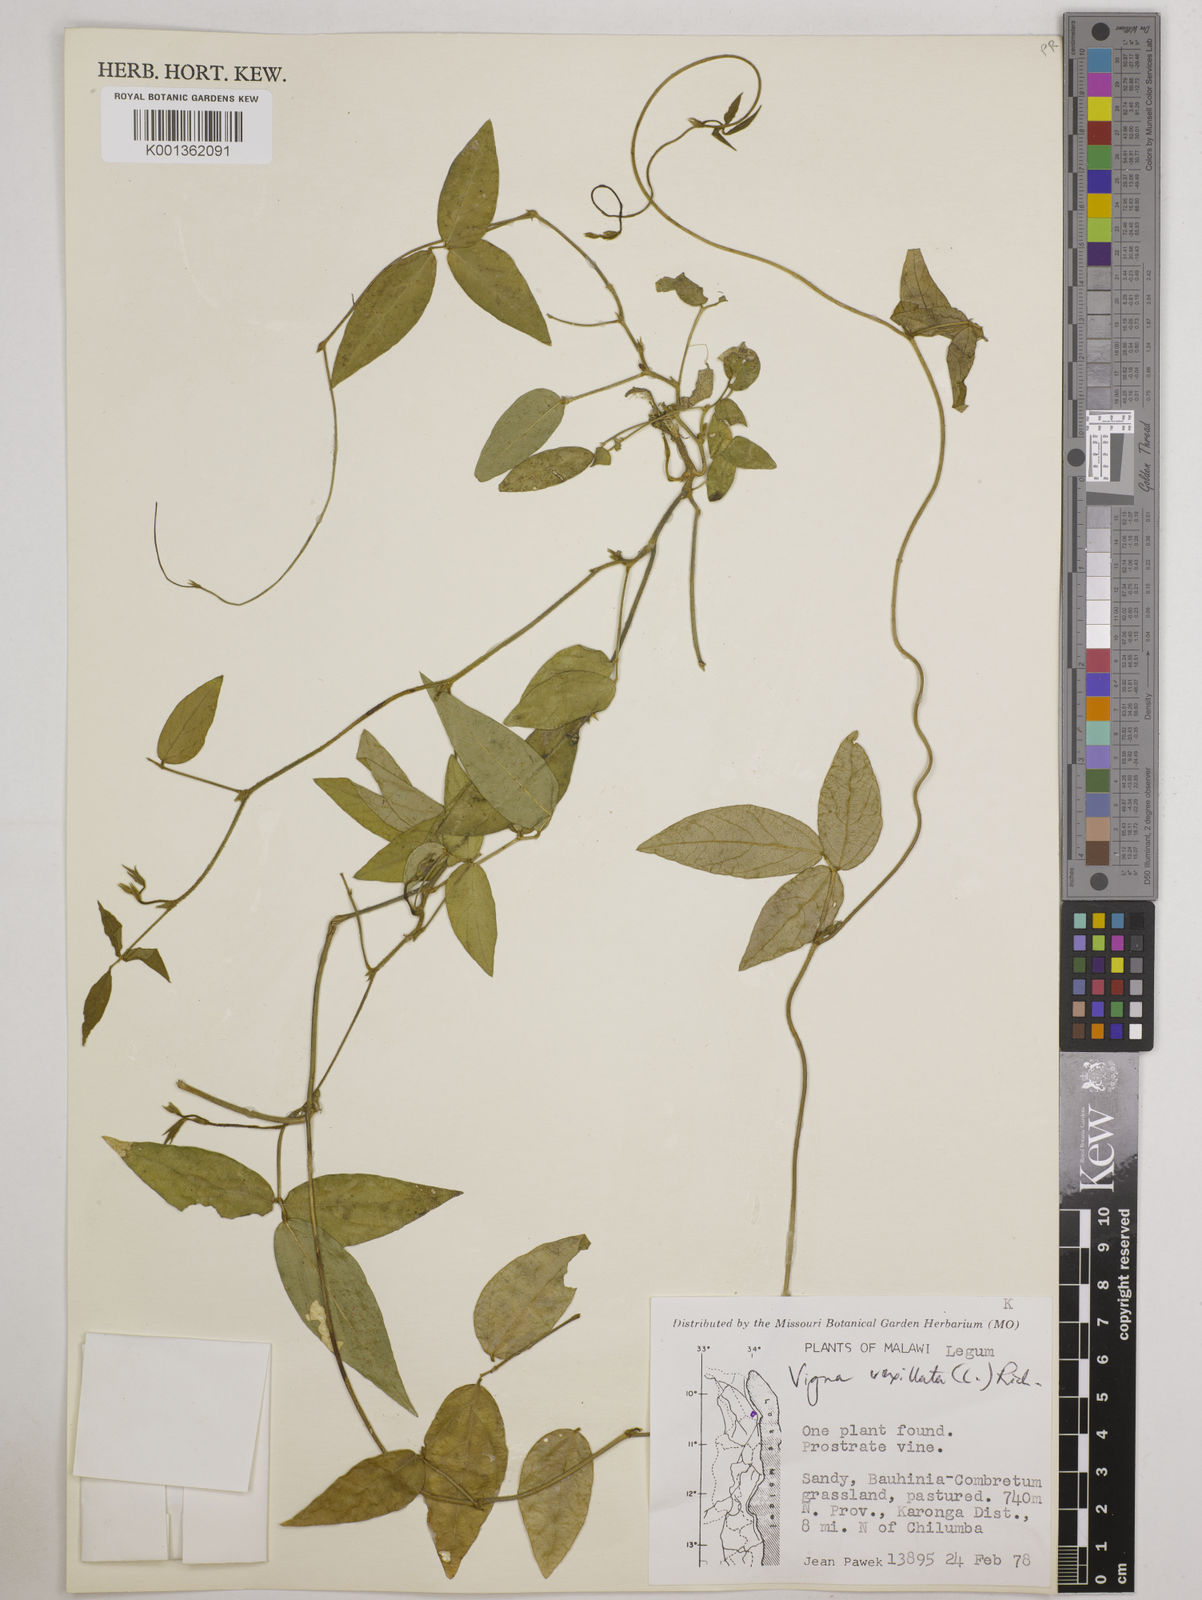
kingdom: Plantae
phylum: Tracheophyta
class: Magnoliopsida
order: Fabales
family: Fabaceae
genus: Vigna
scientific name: Vigna vexillata
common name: Zombi pea
